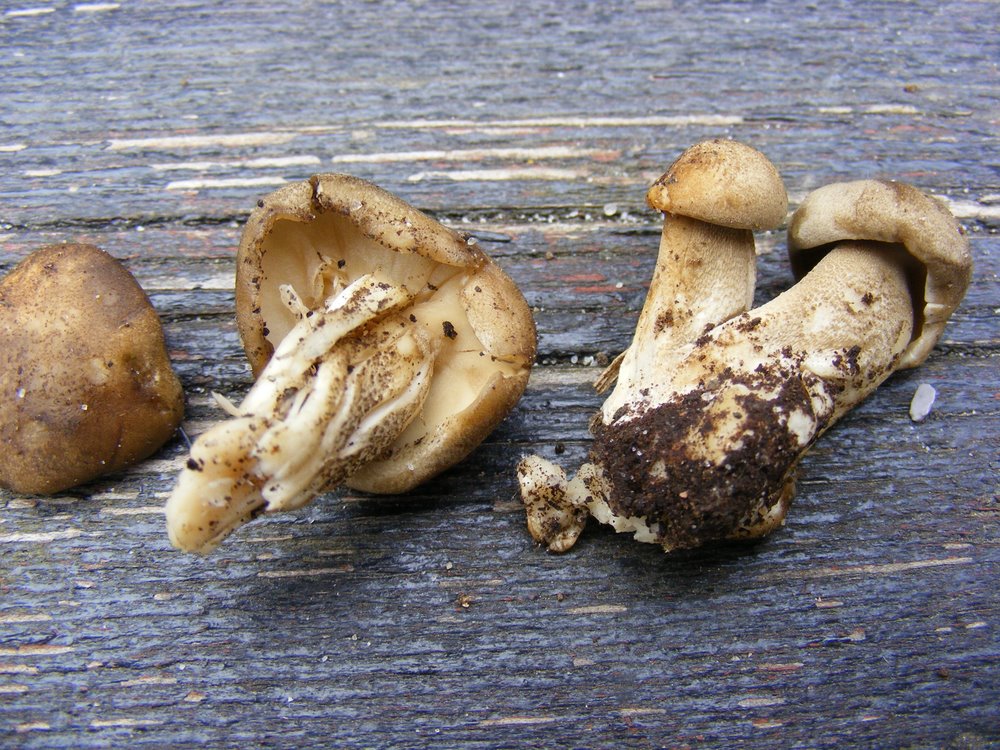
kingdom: Fungi
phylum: Basidiomycota
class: Agaricomycetes
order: Polyporales
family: Polyporaceae
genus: Lentinus
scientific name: Lentinus substrictus
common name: forårs-stilkporesvamp
